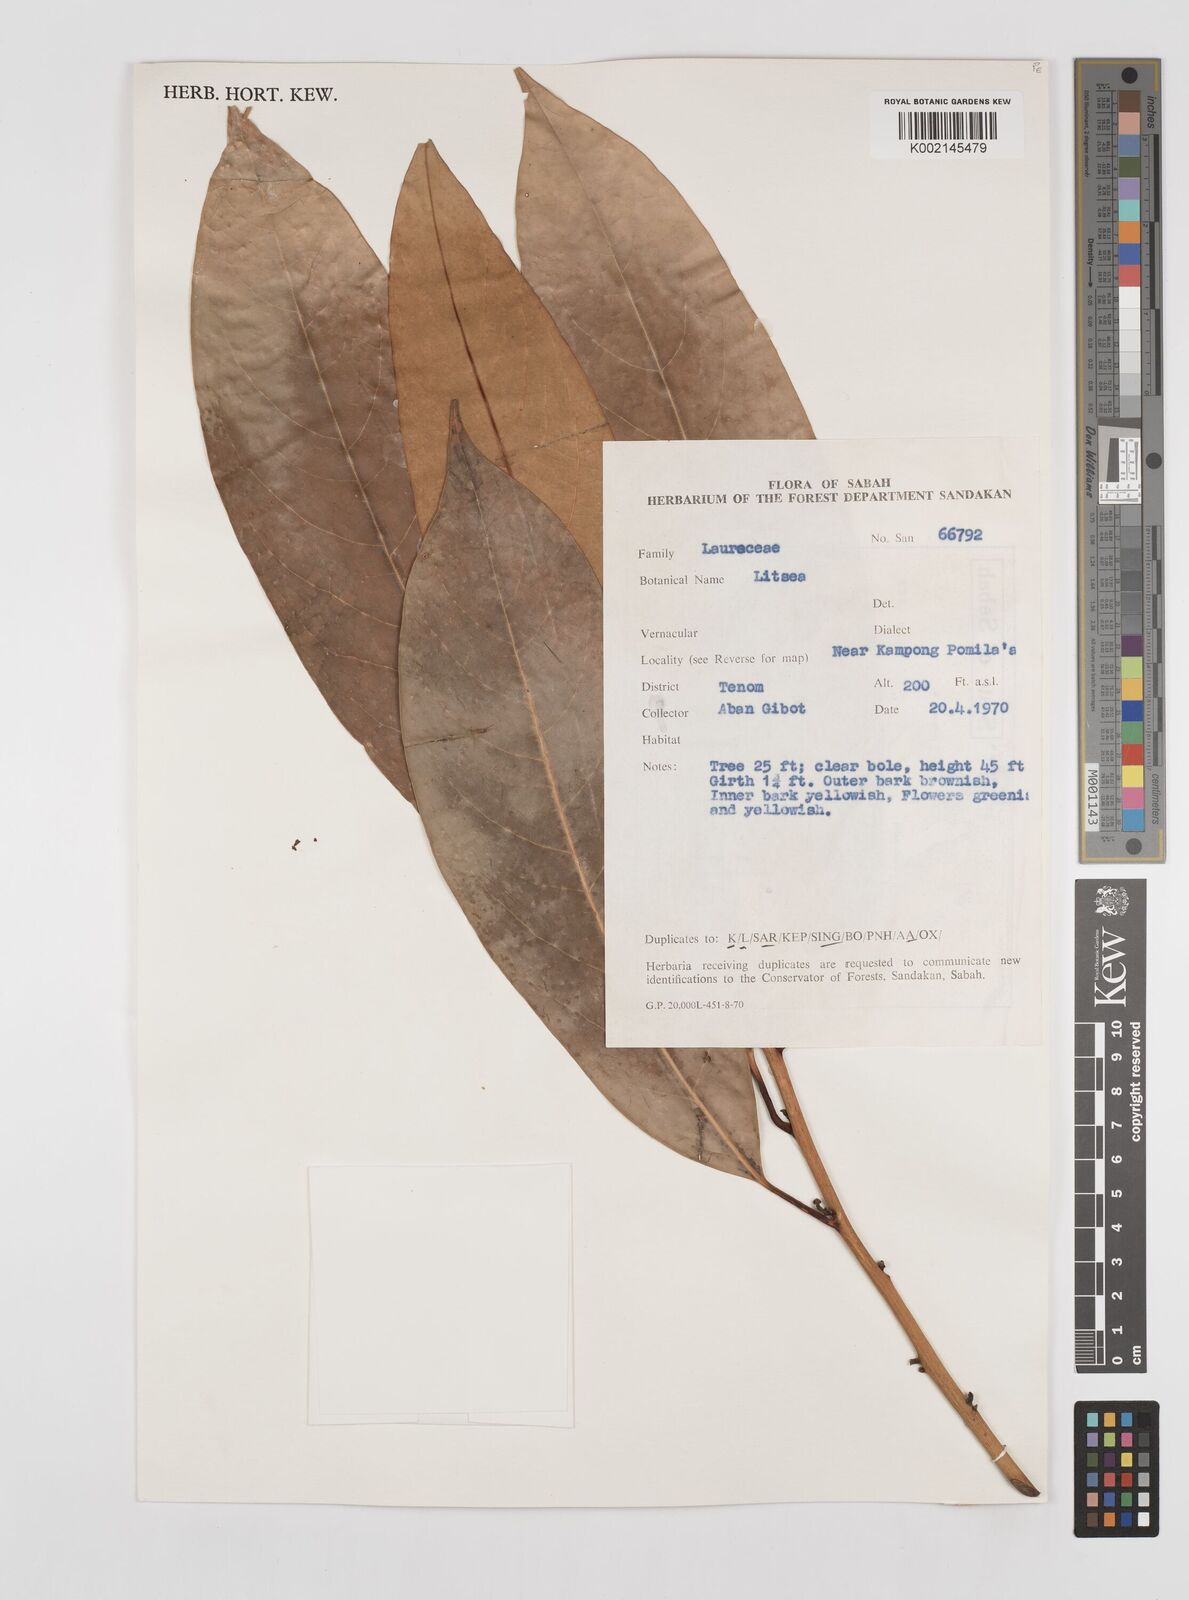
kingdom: Plantae
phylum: Tracheophyta
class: Magnoliopsida
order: Laurales
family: Lauraceae
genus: Litsea
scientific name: Litsea
